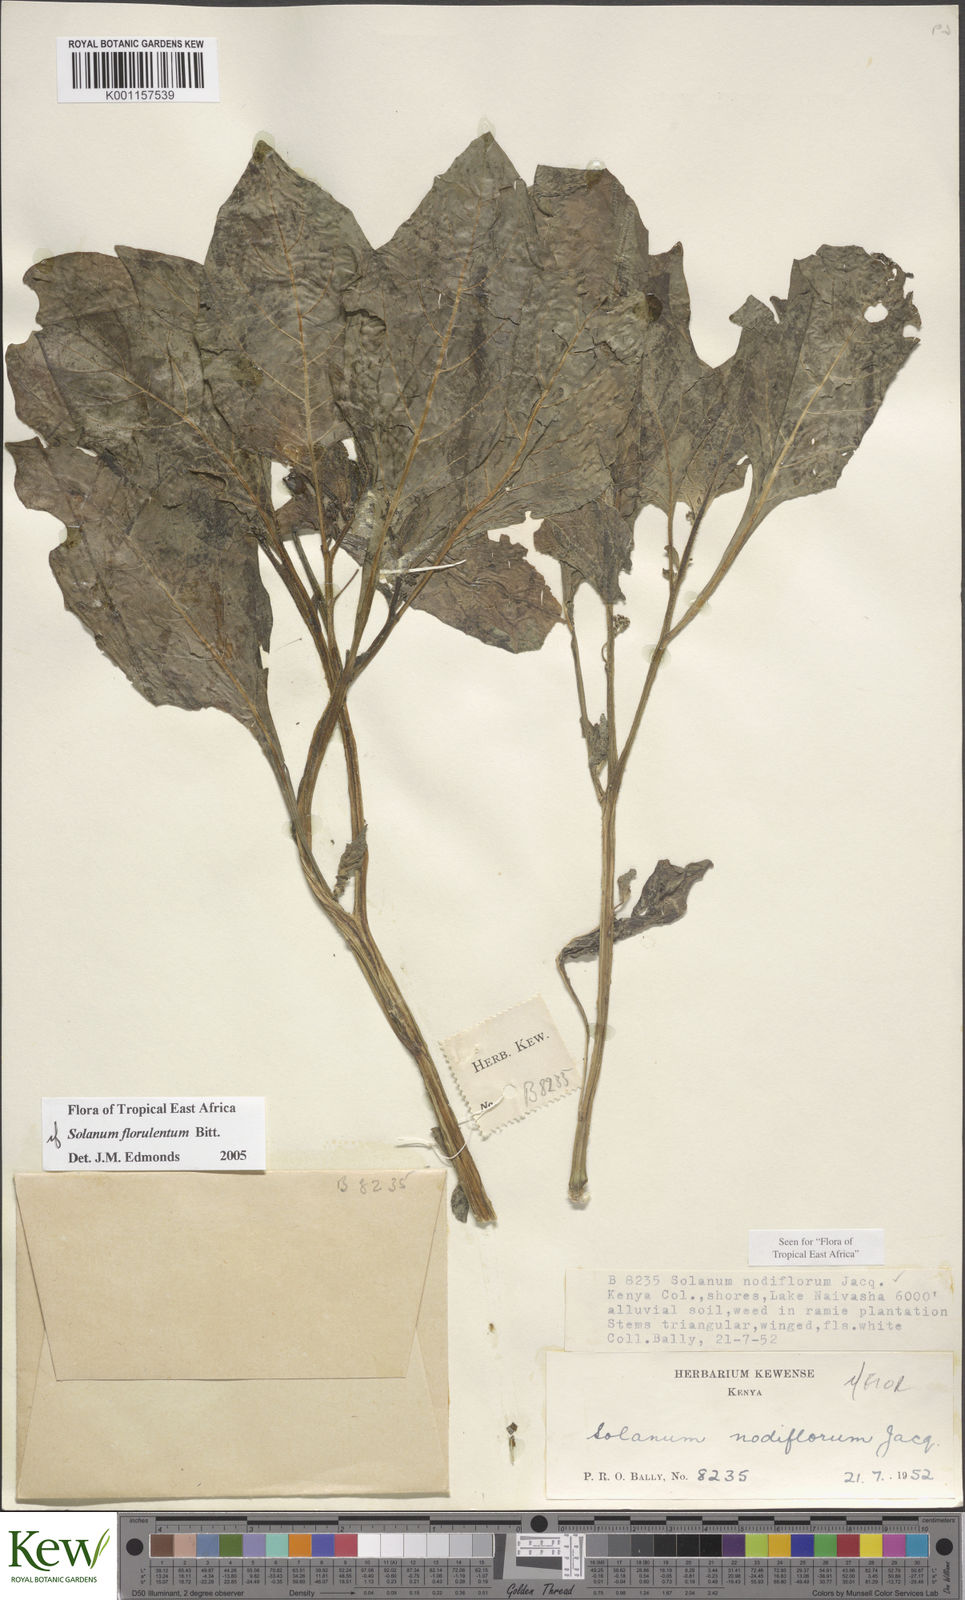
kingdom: Plantae
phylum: Tracheophyta
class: Magnoliopsida
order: Solanales
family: Solanaceae
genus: Solanum
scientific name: Solanum tarderemotum
